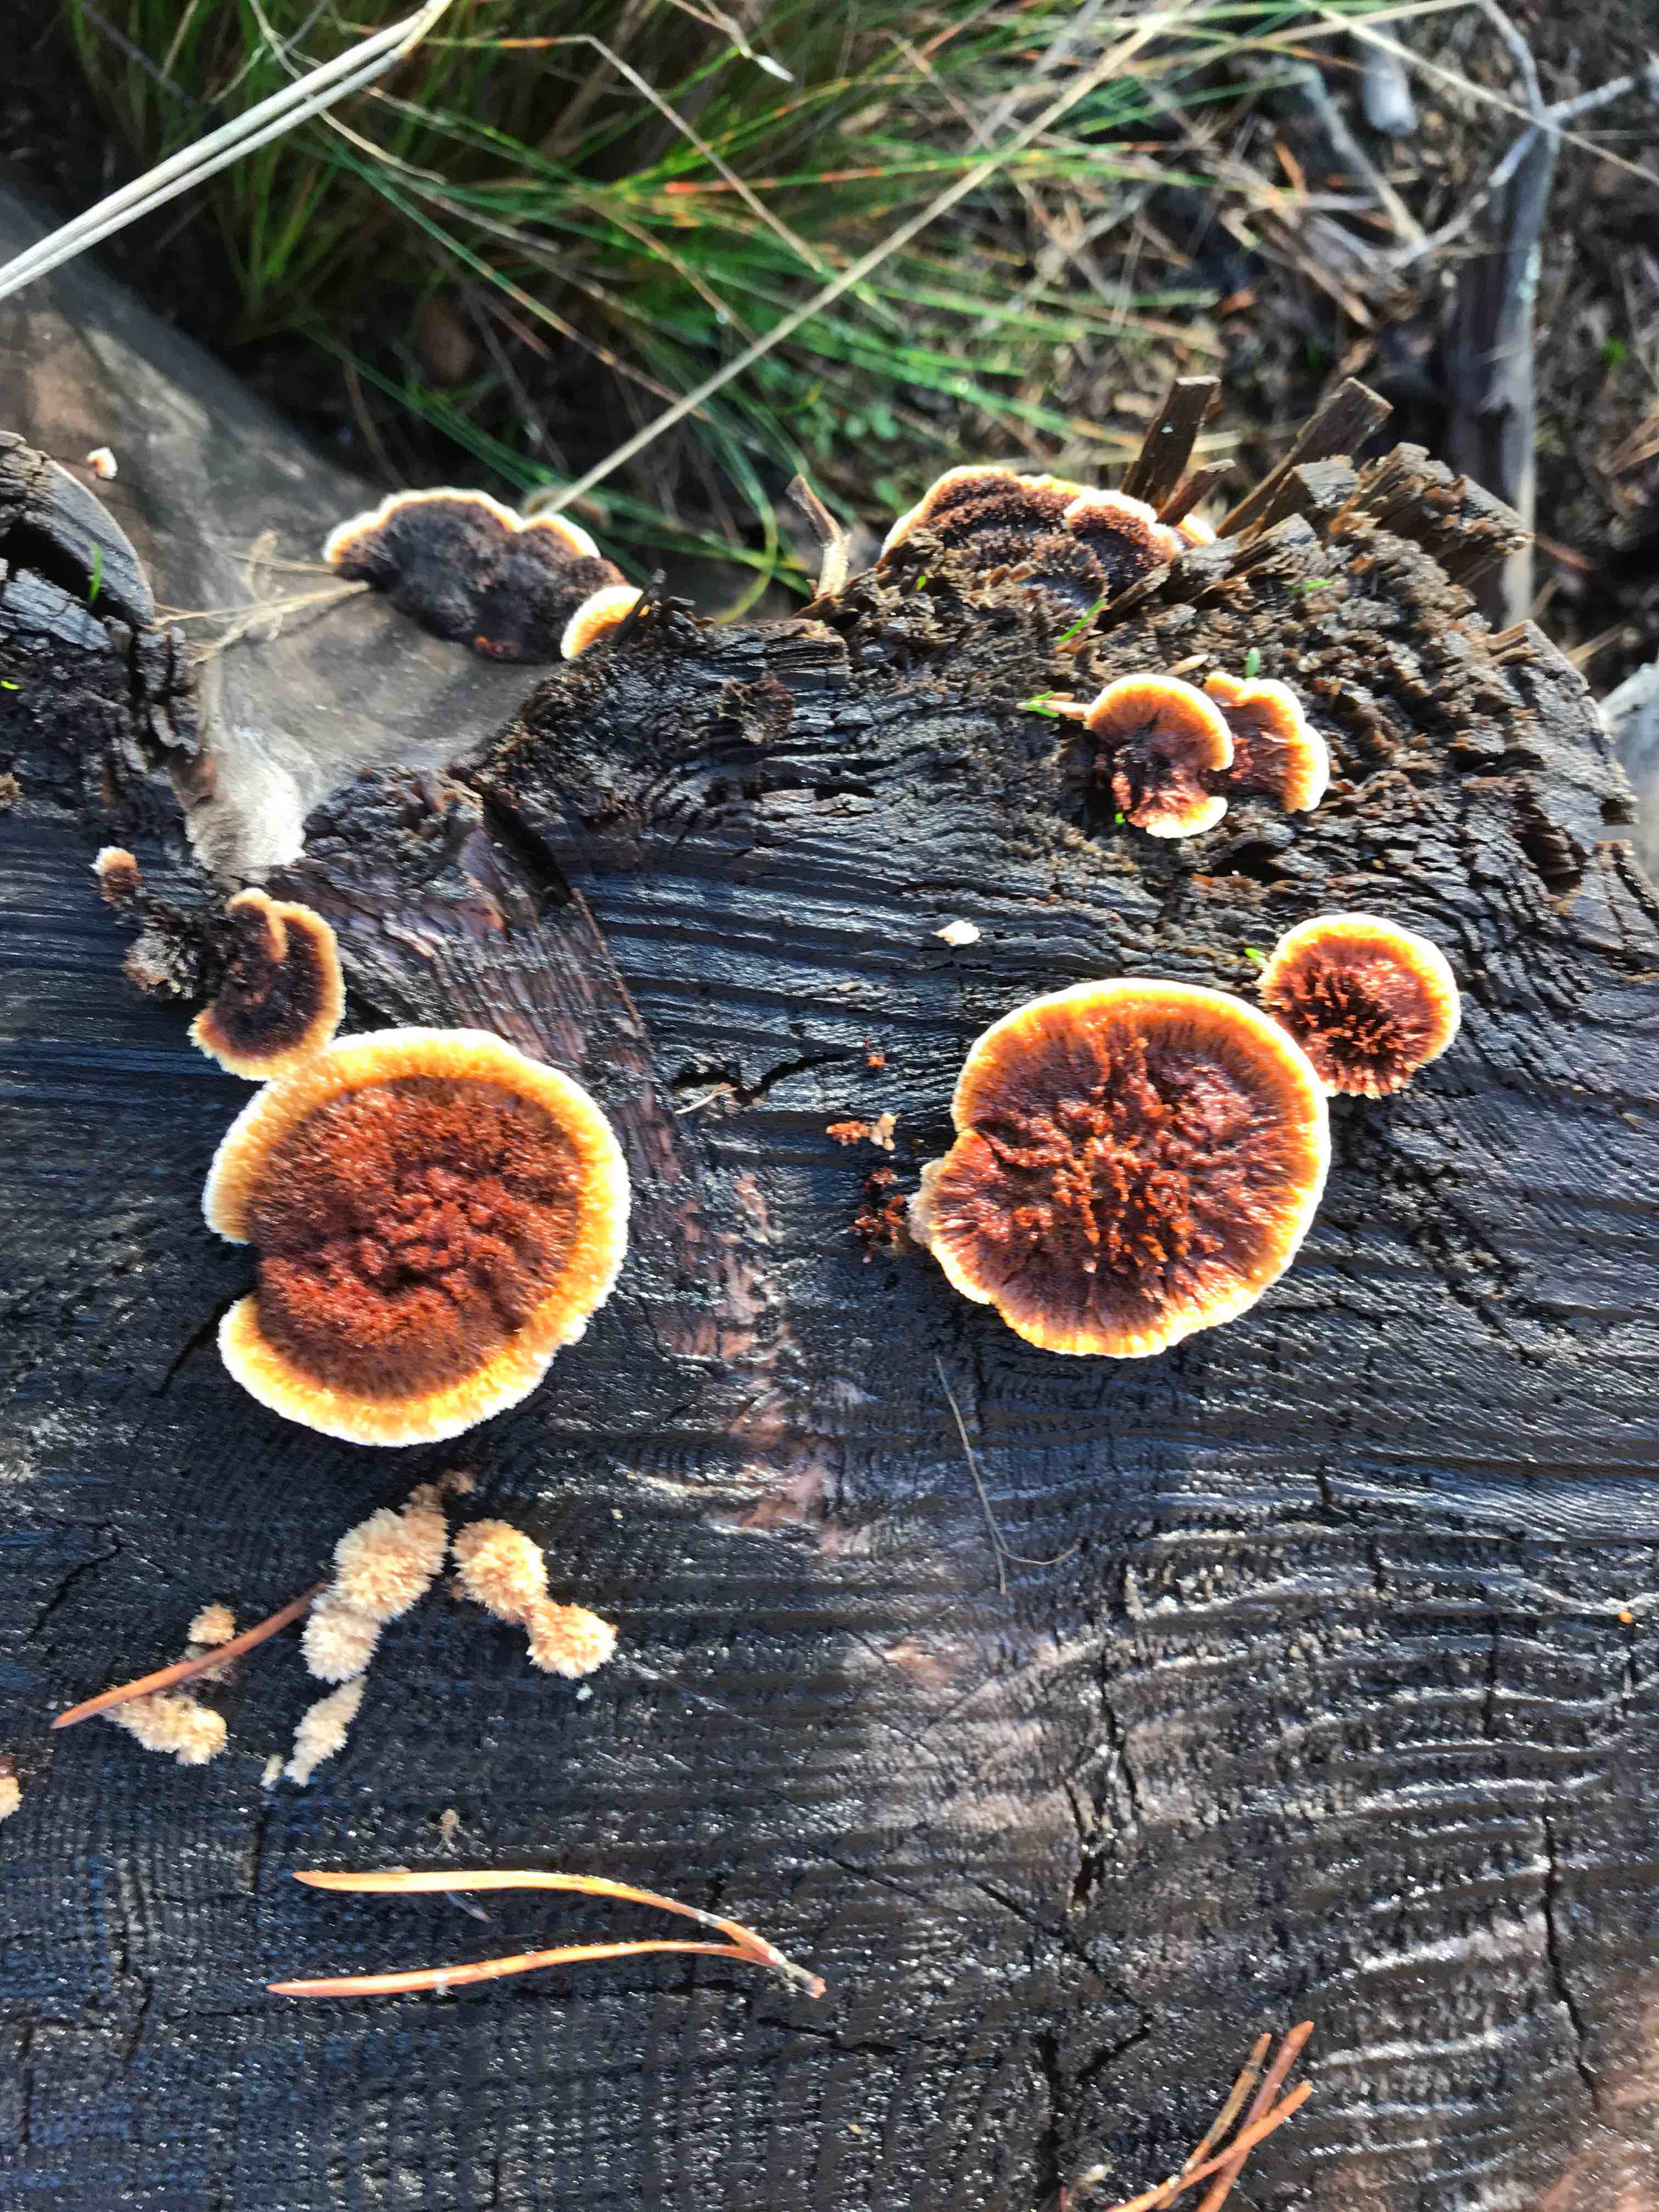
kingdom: Fungi
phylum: Basidiomycota
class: Agaricomycetes
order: Gloeophyllales
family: Gloeophyllaceae
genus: Gloeophyllum
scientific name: Gloeophyllum sepiarium
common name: fyrre-korkhat
